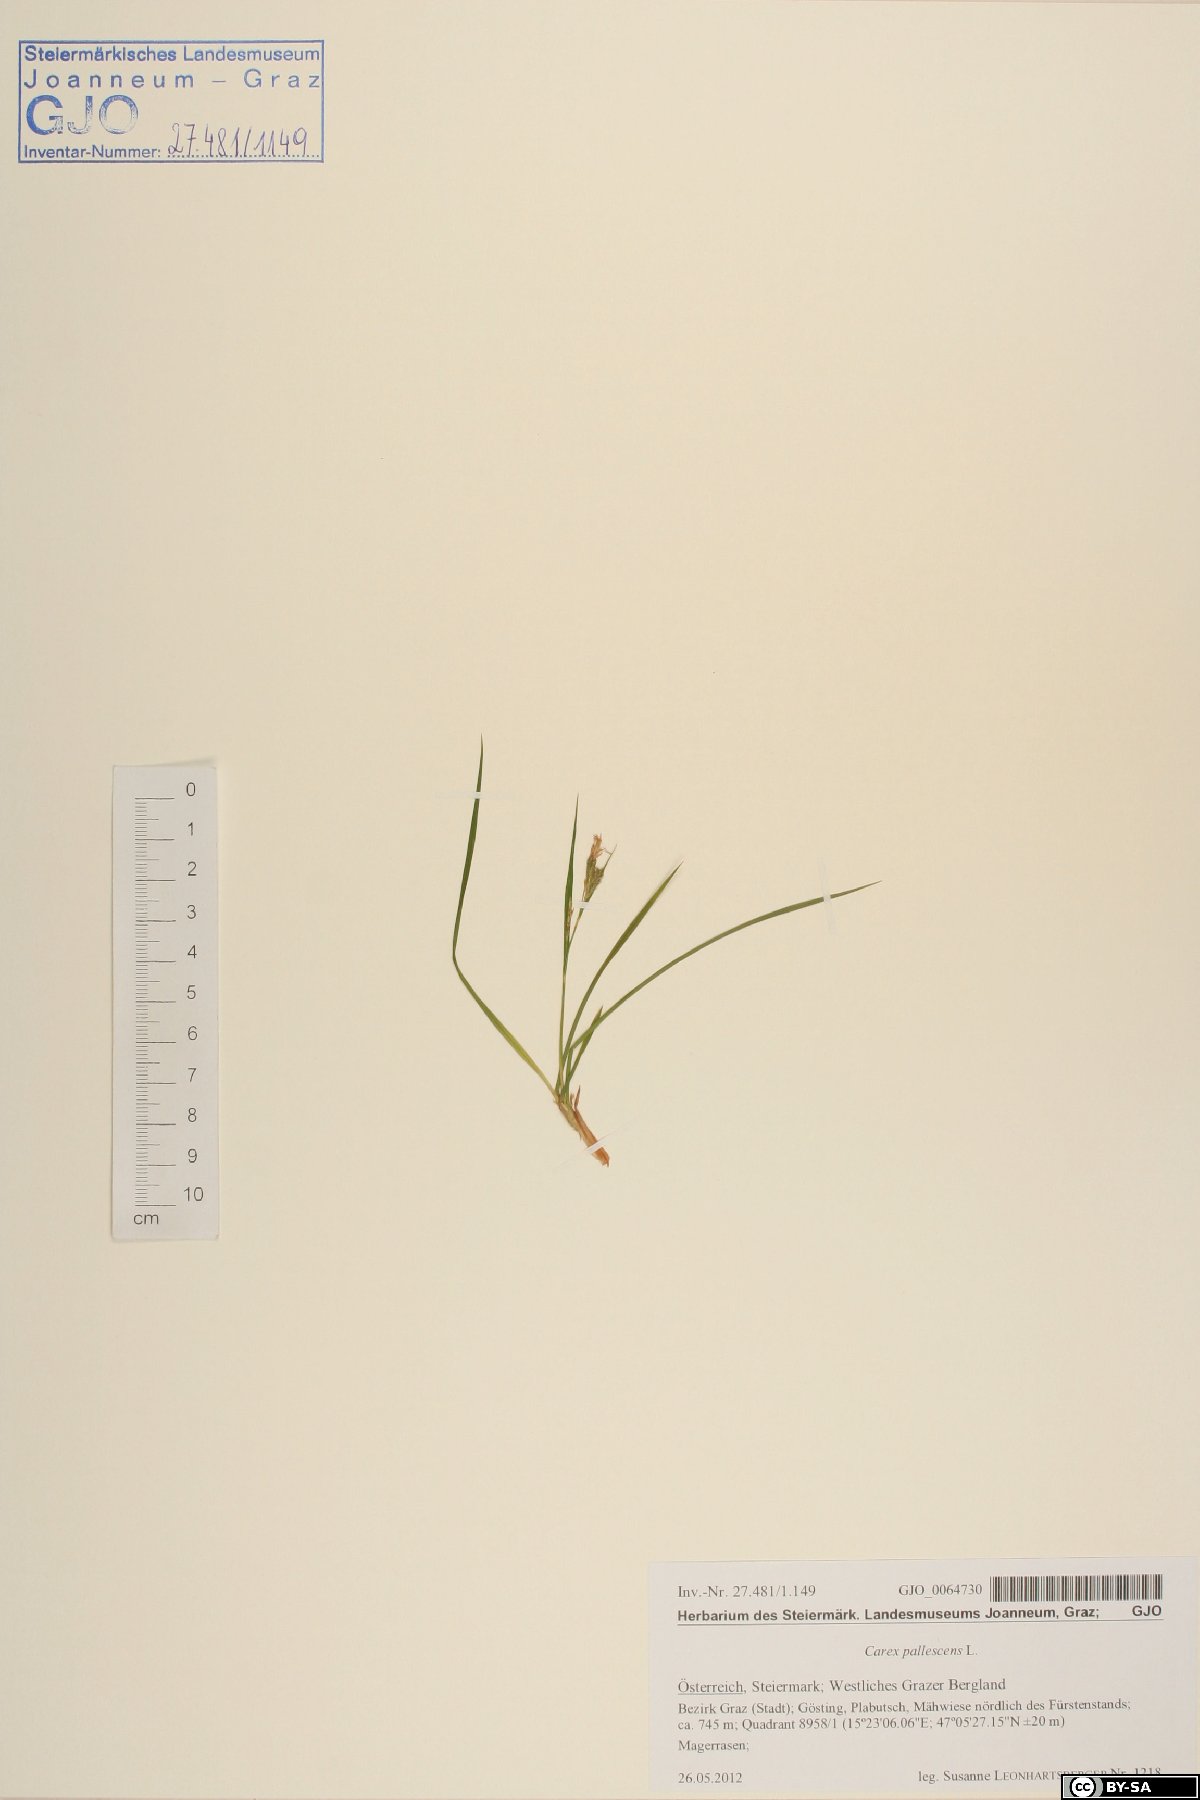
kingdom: Plantae
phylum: Tracheophyta
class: Liliopsida
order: Poales
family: Cyperaceae
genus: Carex
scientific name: Carex pallescens
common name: Pale sedge
